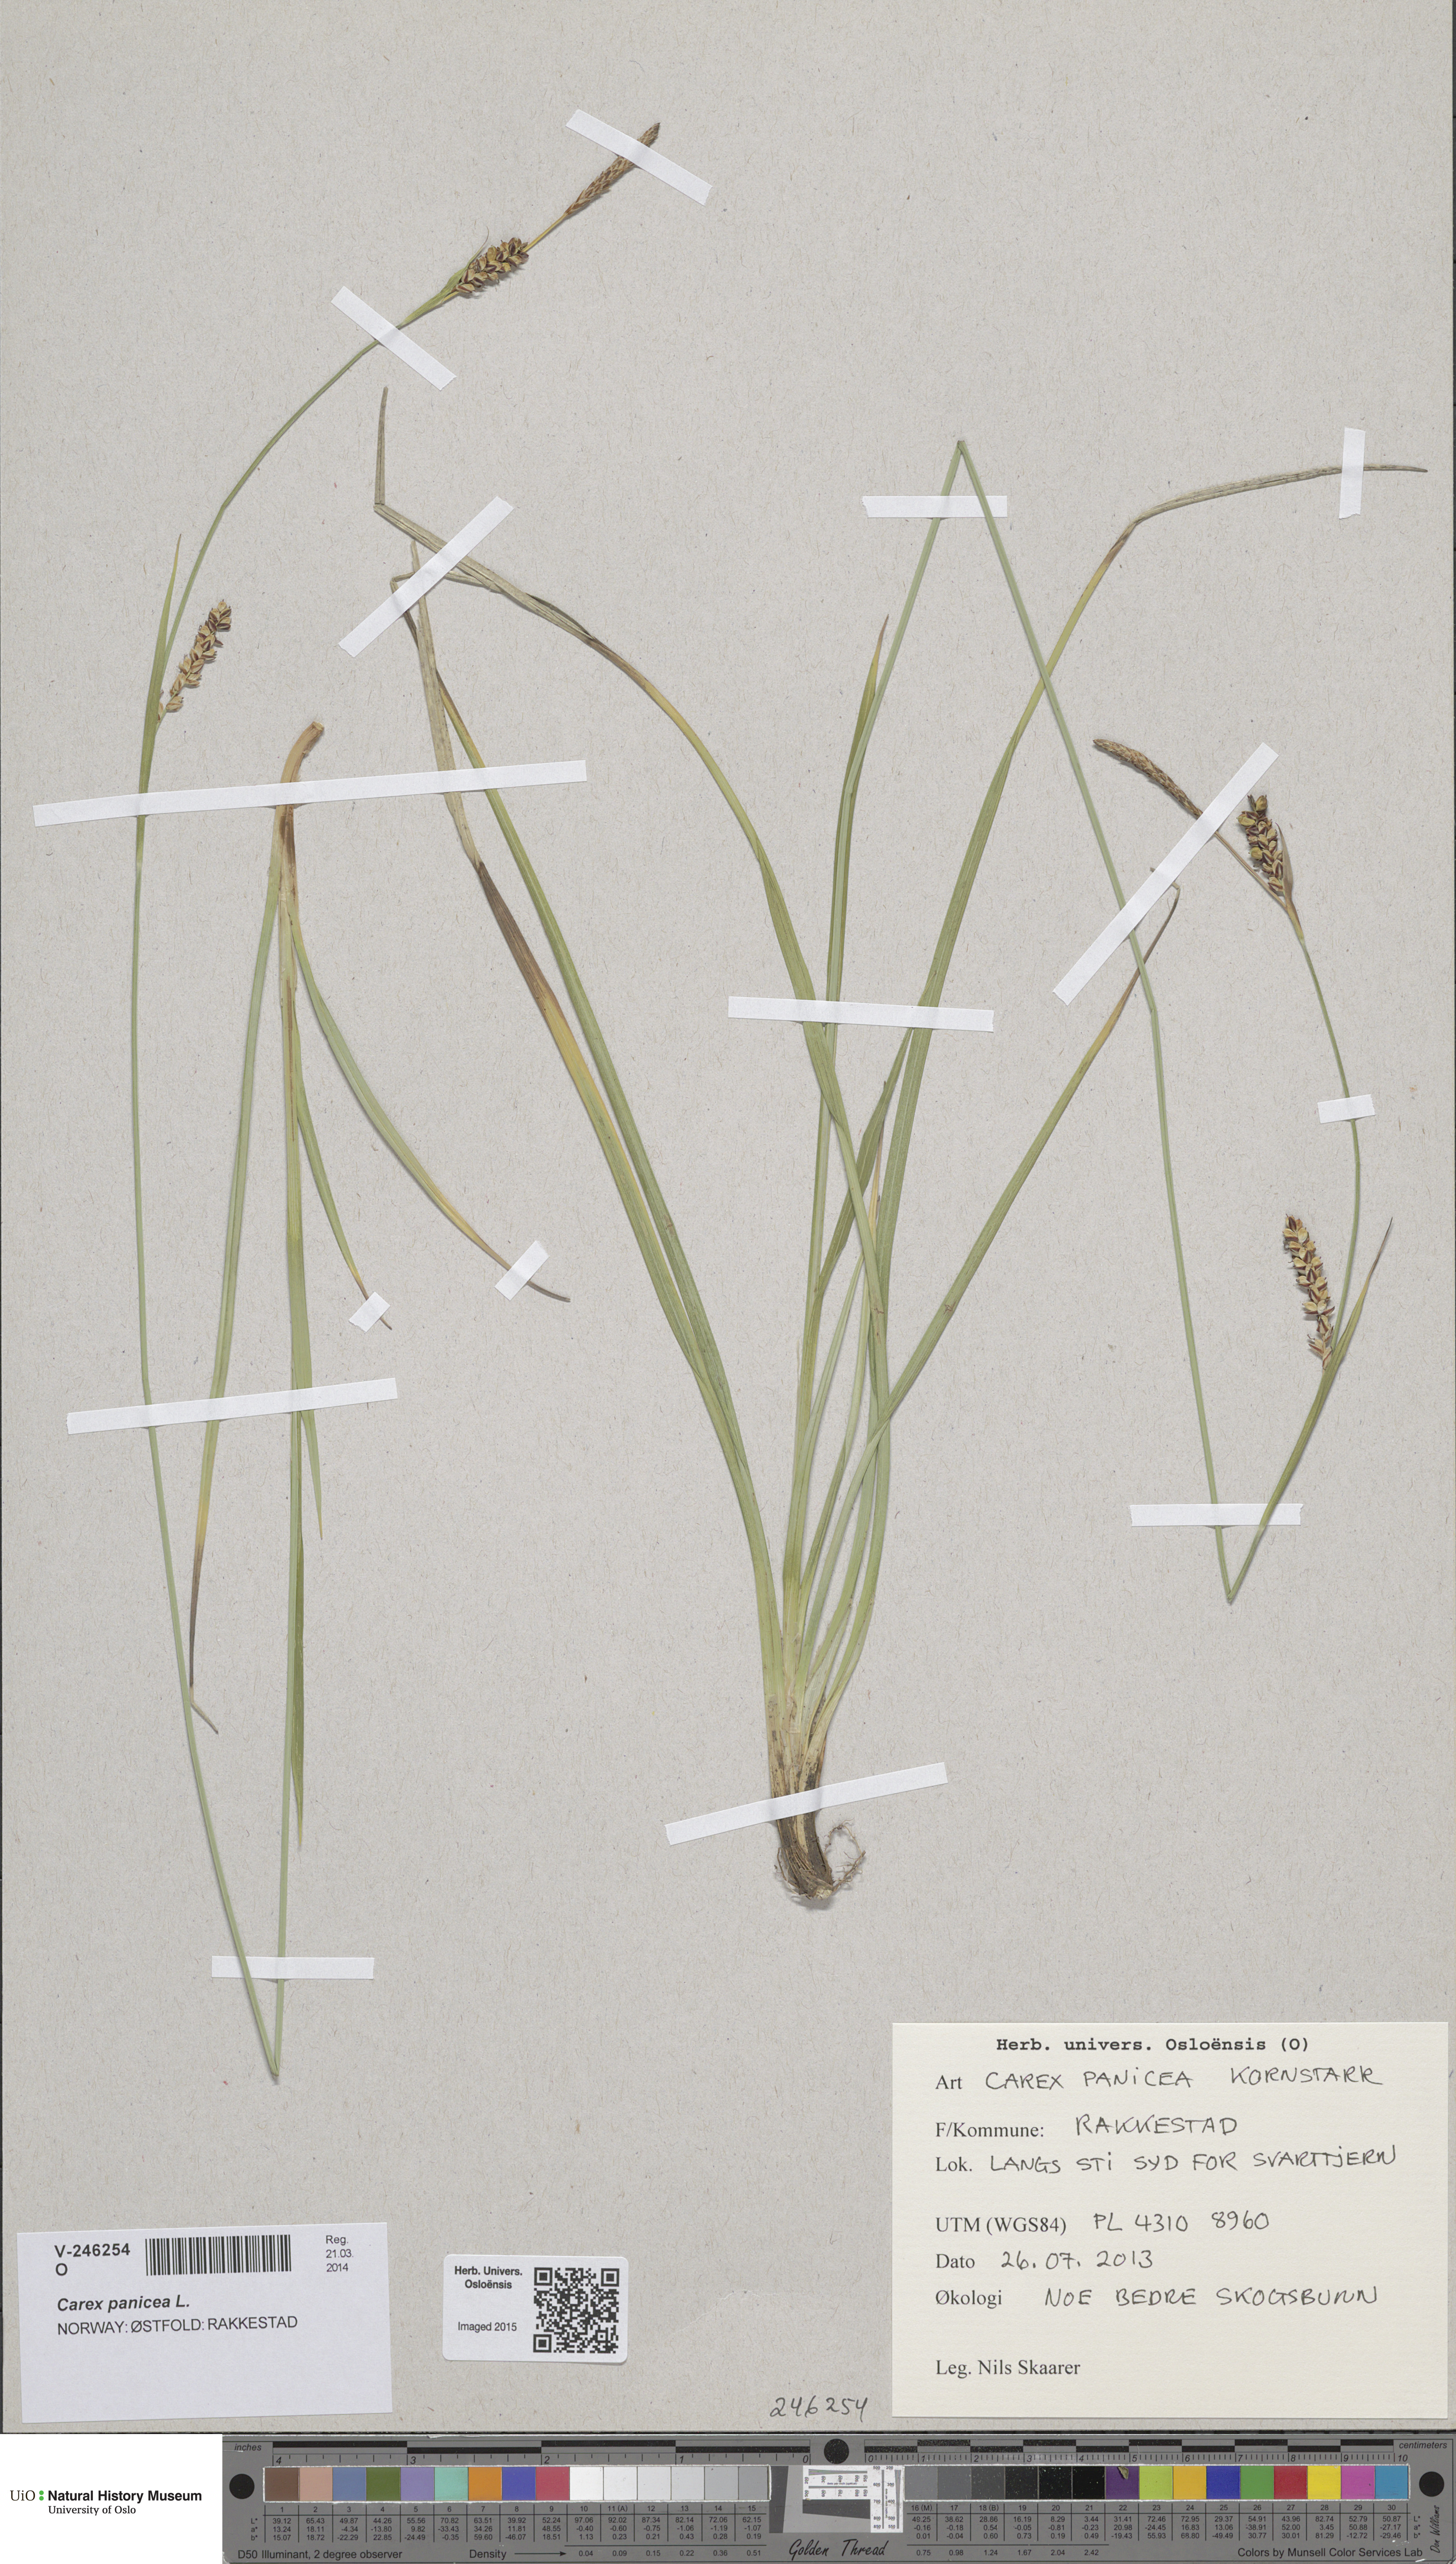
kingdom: Plantae
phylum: Tracheophyta
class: Liliopsida
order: Poales
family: Cyperaceae
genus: Carex
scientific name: Carex panicea
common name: Carnation sedge
